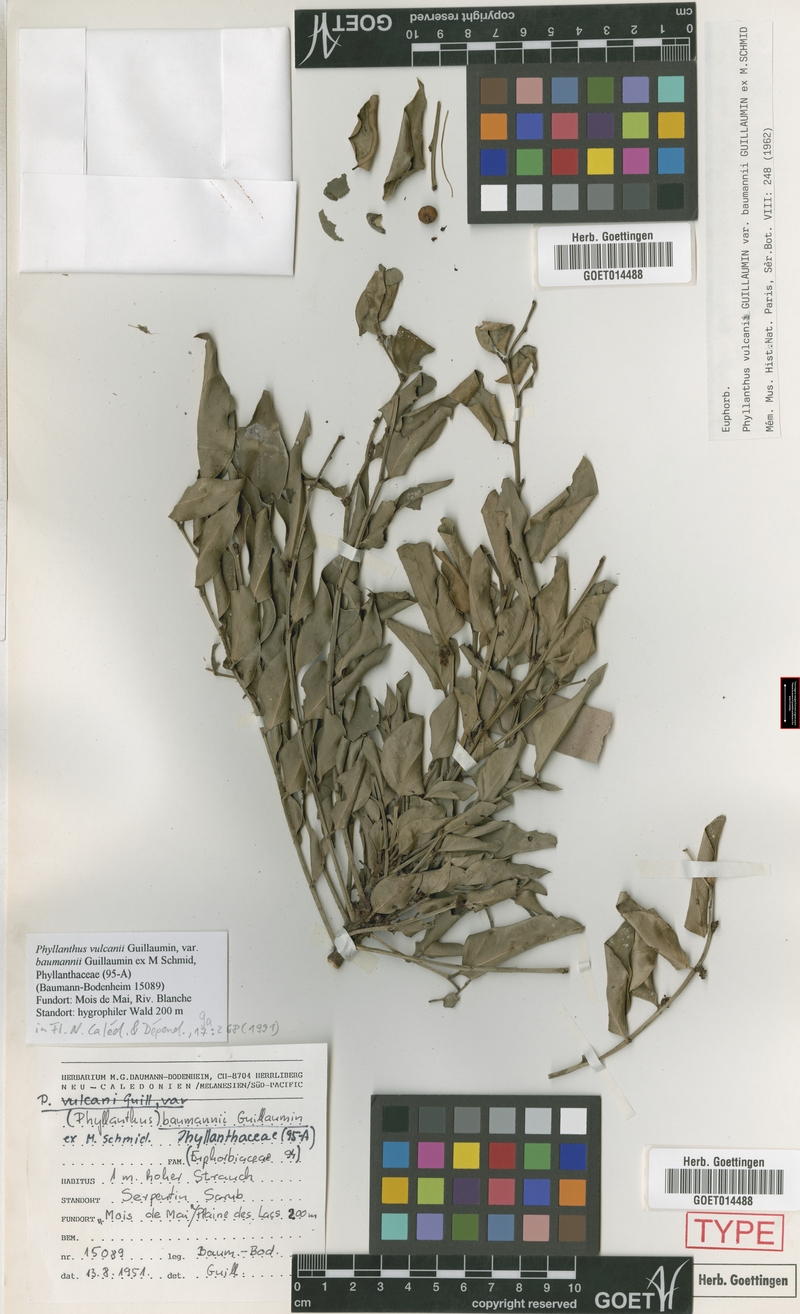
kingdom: Plantae
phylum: Tracheophyta
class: Magnoliopsida
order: Malpighiales
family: Phyllanthaceae
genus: Phyllanthus
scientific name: Phyllanthus vulcani
